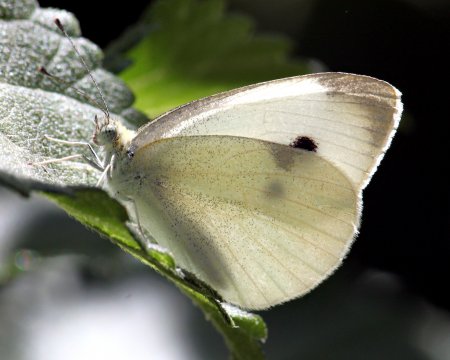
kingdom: Animalia
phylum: Arthropoda
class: Insecta
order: Lepidoptera
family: Pieridae
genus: Pieris
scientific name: Pieris rapae
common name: Cabbage White
